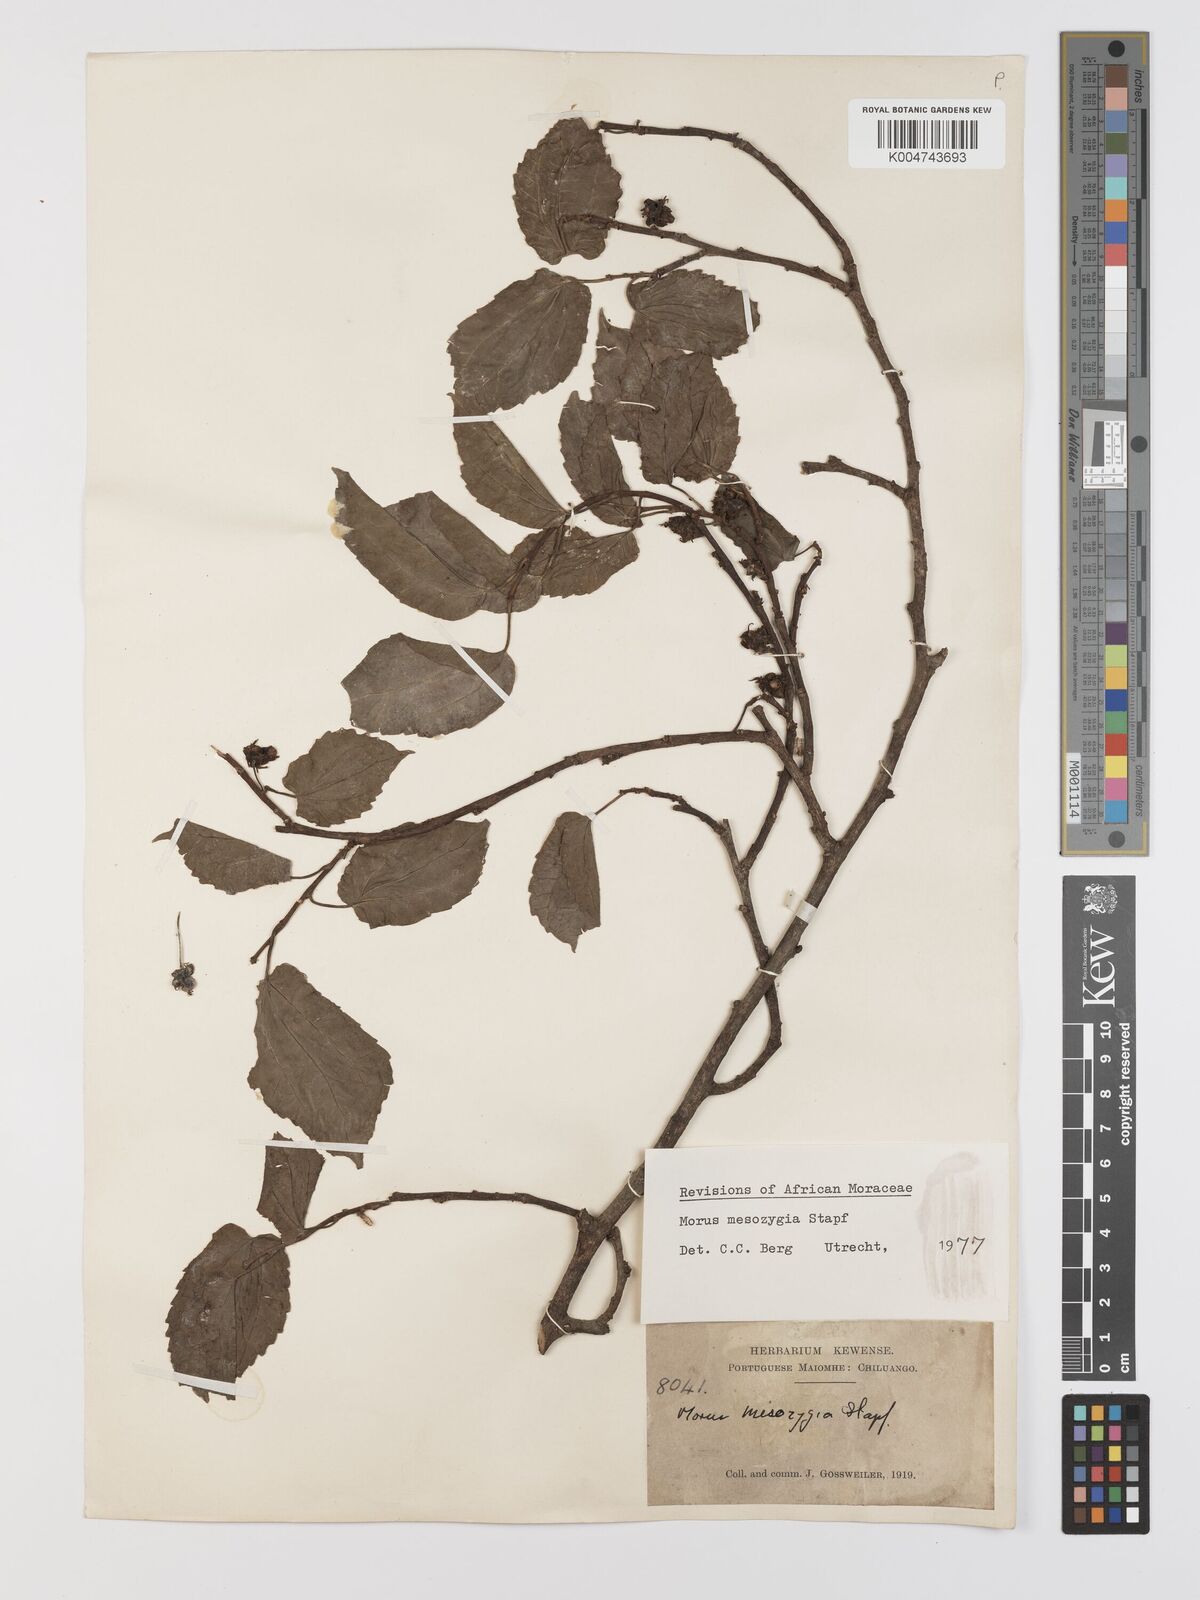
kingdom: Plantae
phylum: Tracheophyta
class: Magnoliopsida
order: Rosales
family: Moraceae
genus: Afromorus
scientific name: Afromorus mesozygia
